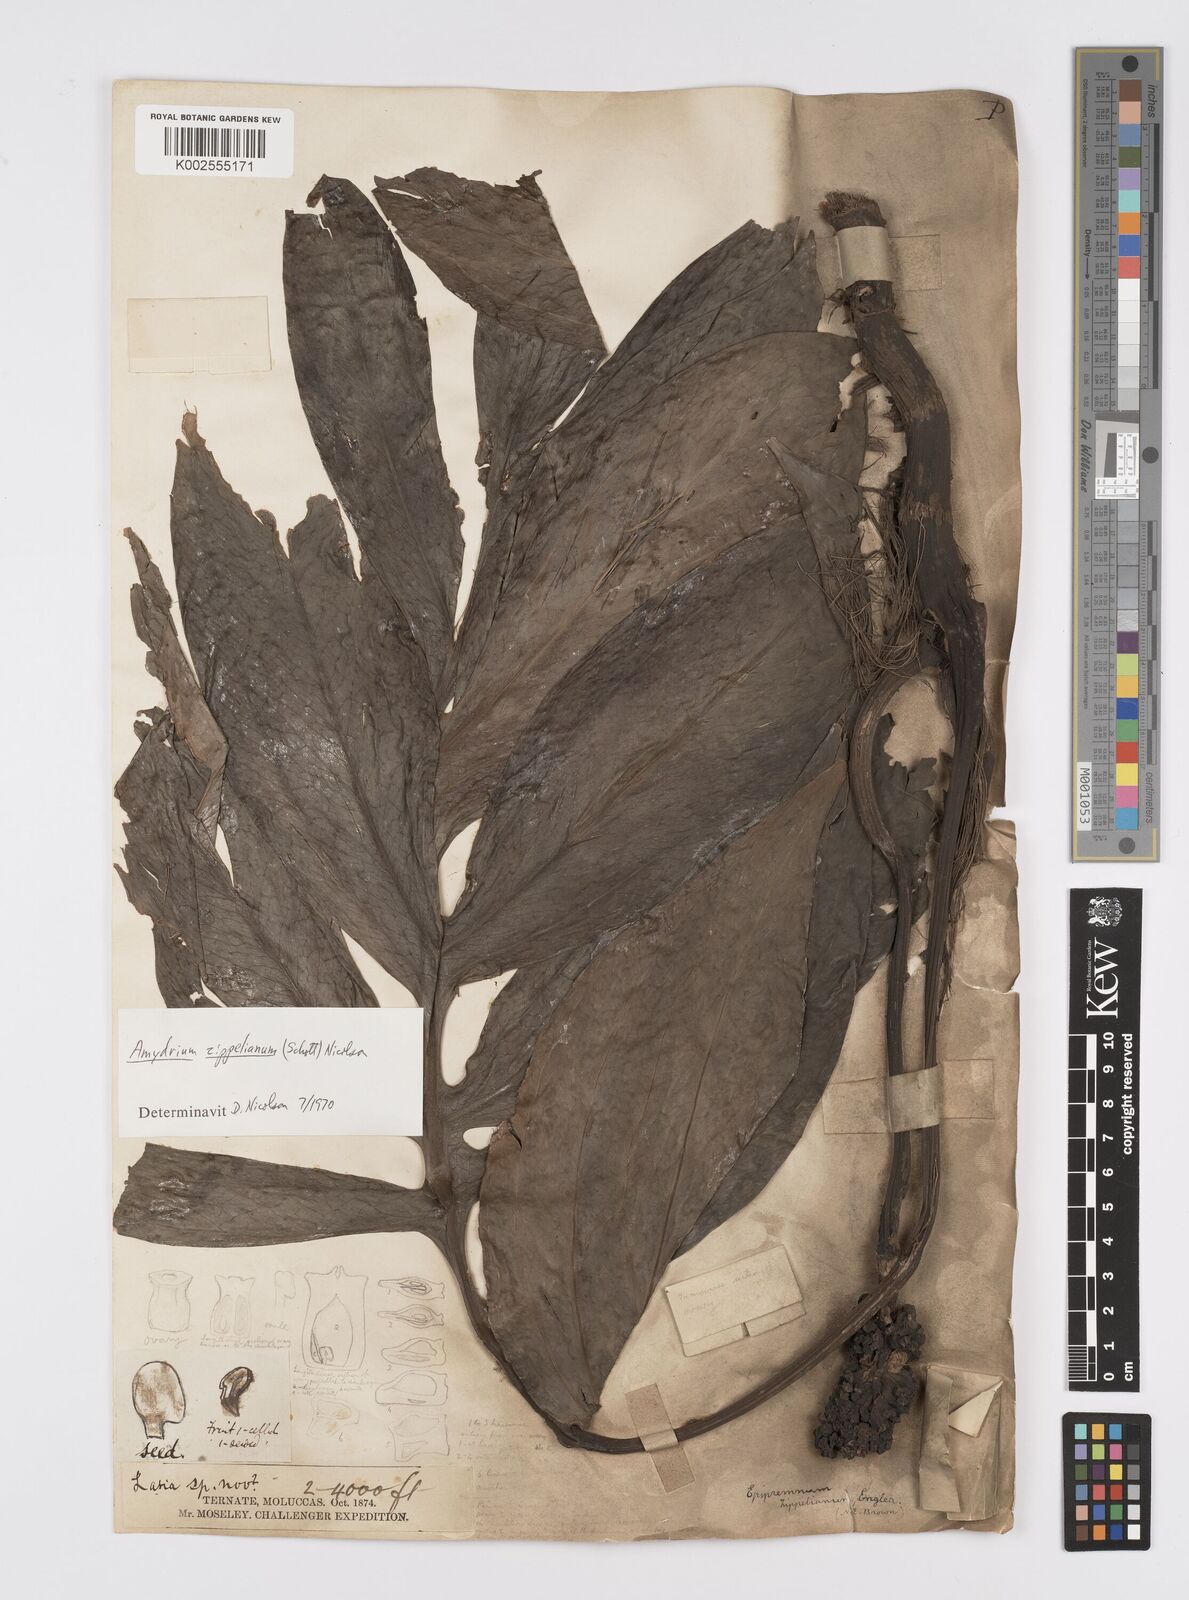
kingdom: Plantae
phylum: Tracheophyta
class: Liliopsida
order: Alismatales
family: Araceae
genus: Amydrium
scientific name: Amydrium zippelianum
